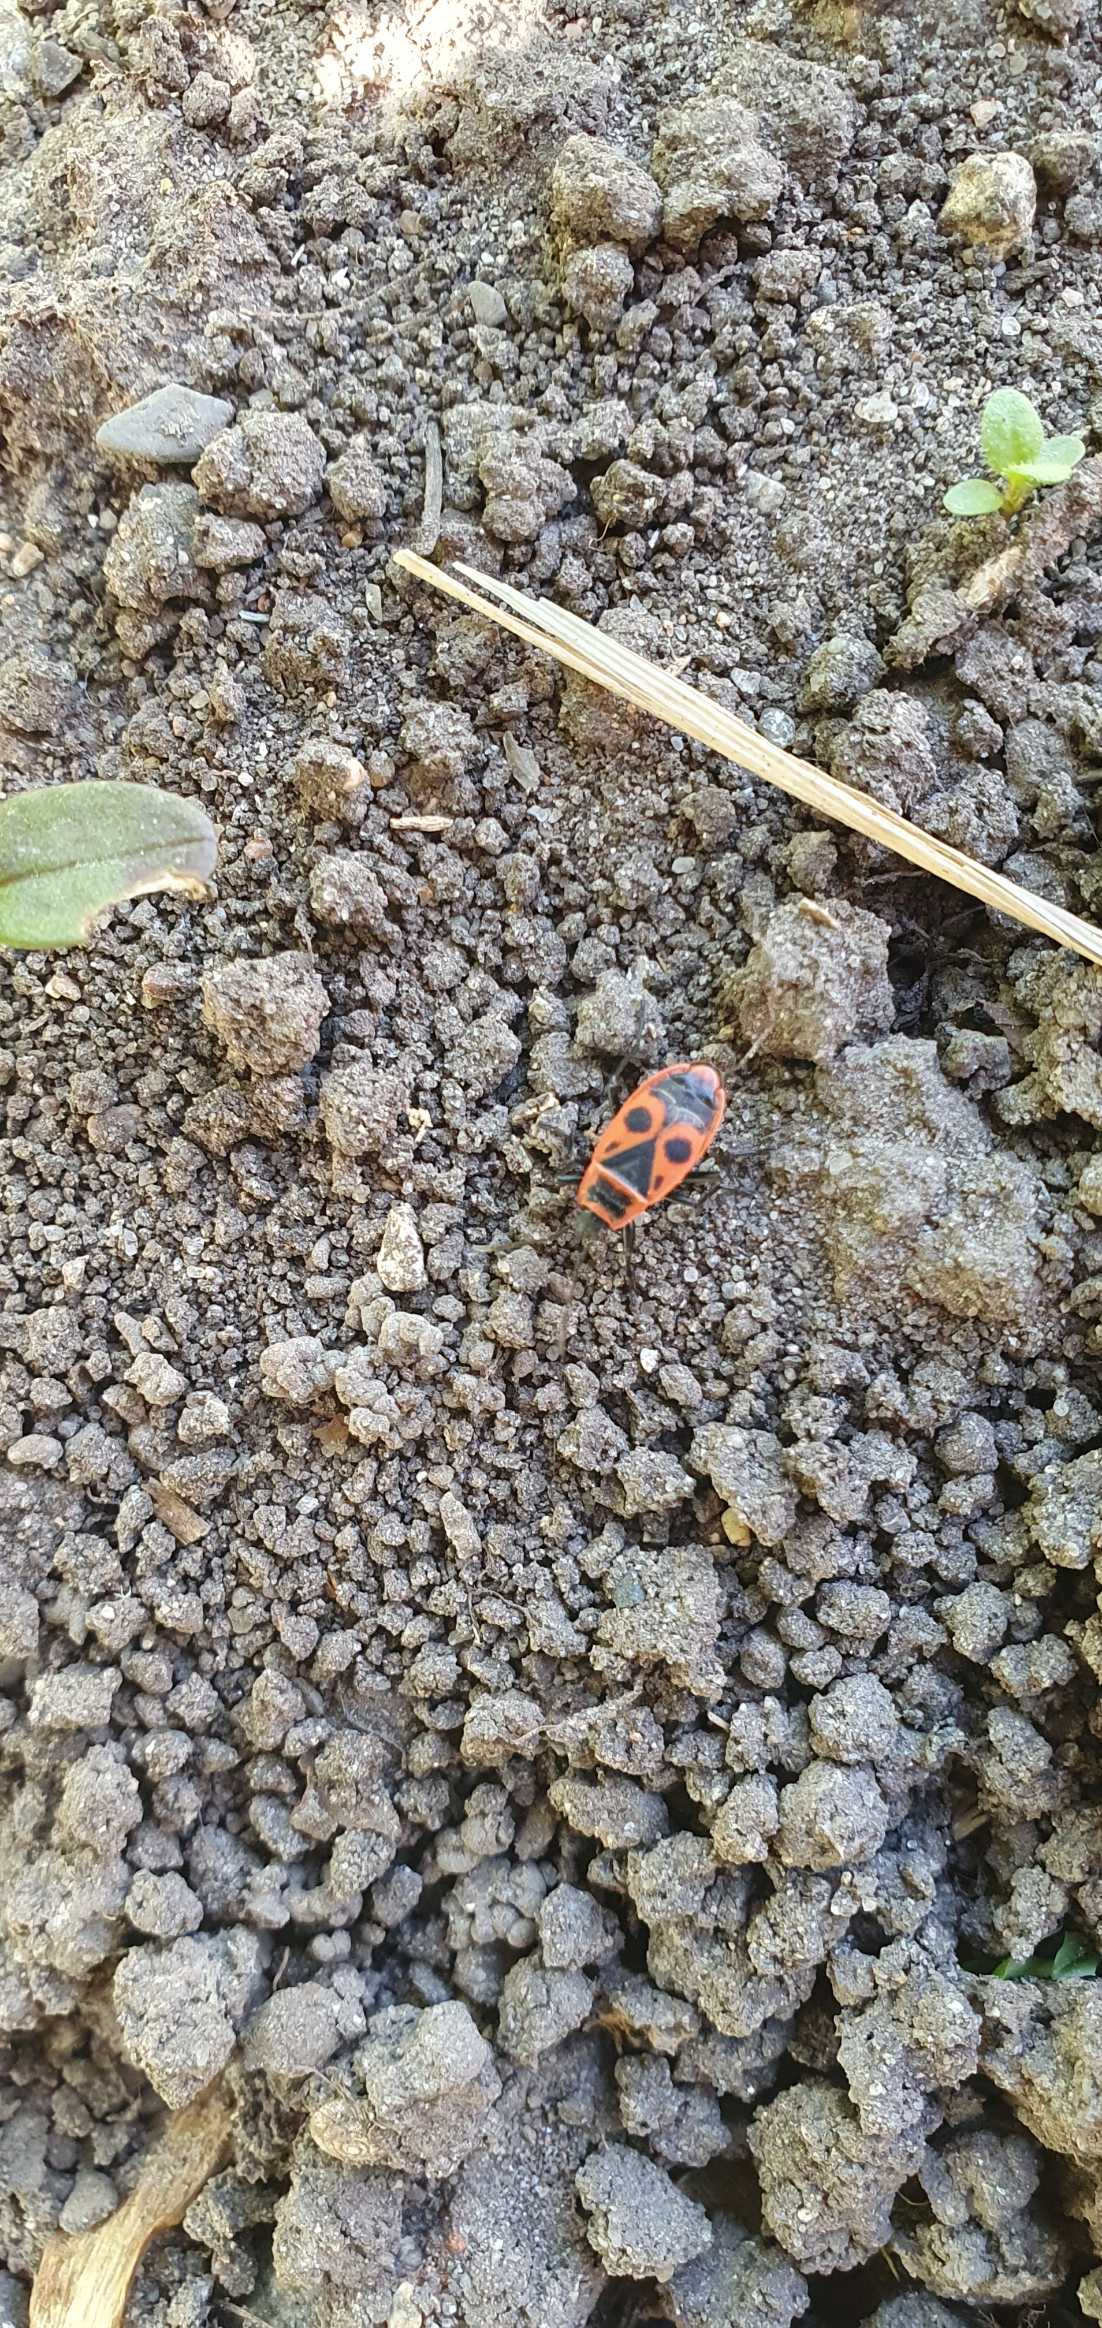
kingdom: Animalia
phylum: Arthropoda
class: Insecta
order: Hemiptera
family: Pyrrhocoridae
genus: Pyrrhocoris
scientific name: Pyrrhocoris apterus
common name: Ildtæge
